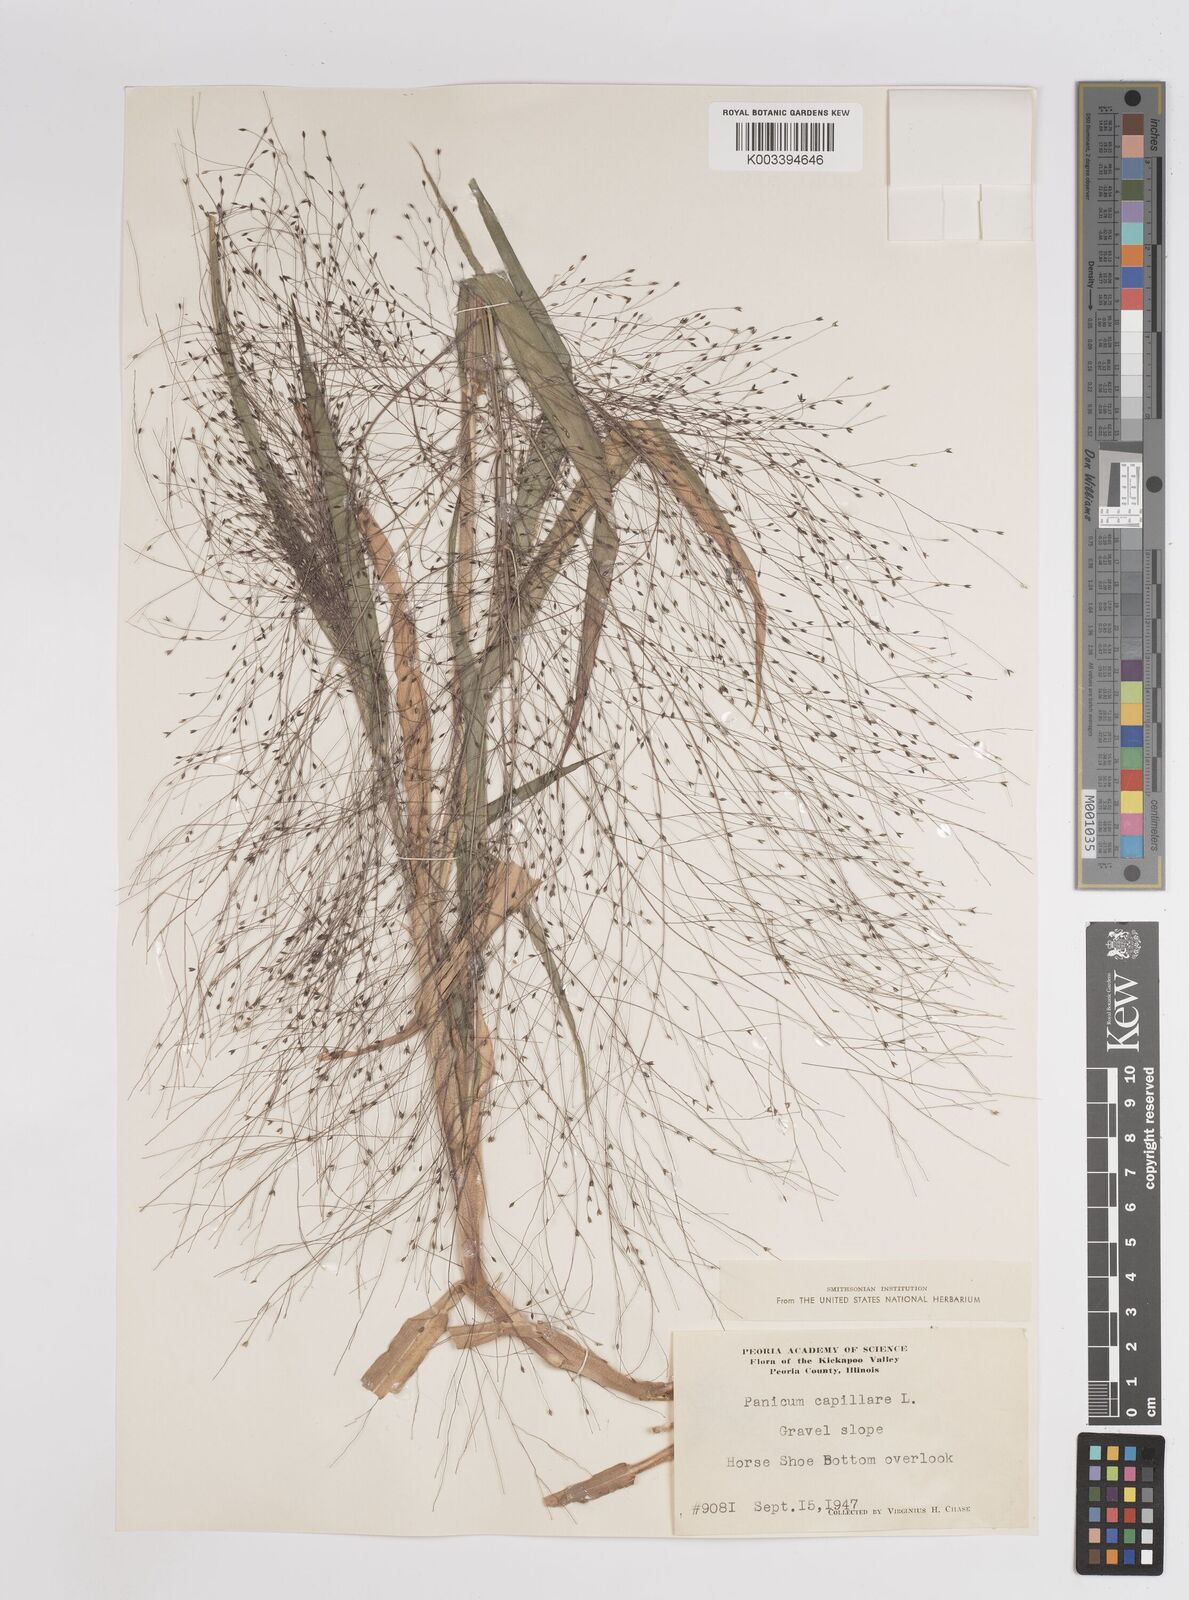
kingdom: Plantae
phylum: Tracheophyta
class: Liliopsida
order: Poales
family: Poaceae
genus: Panicum
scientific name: Panicum capillare
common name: Witch-grass
